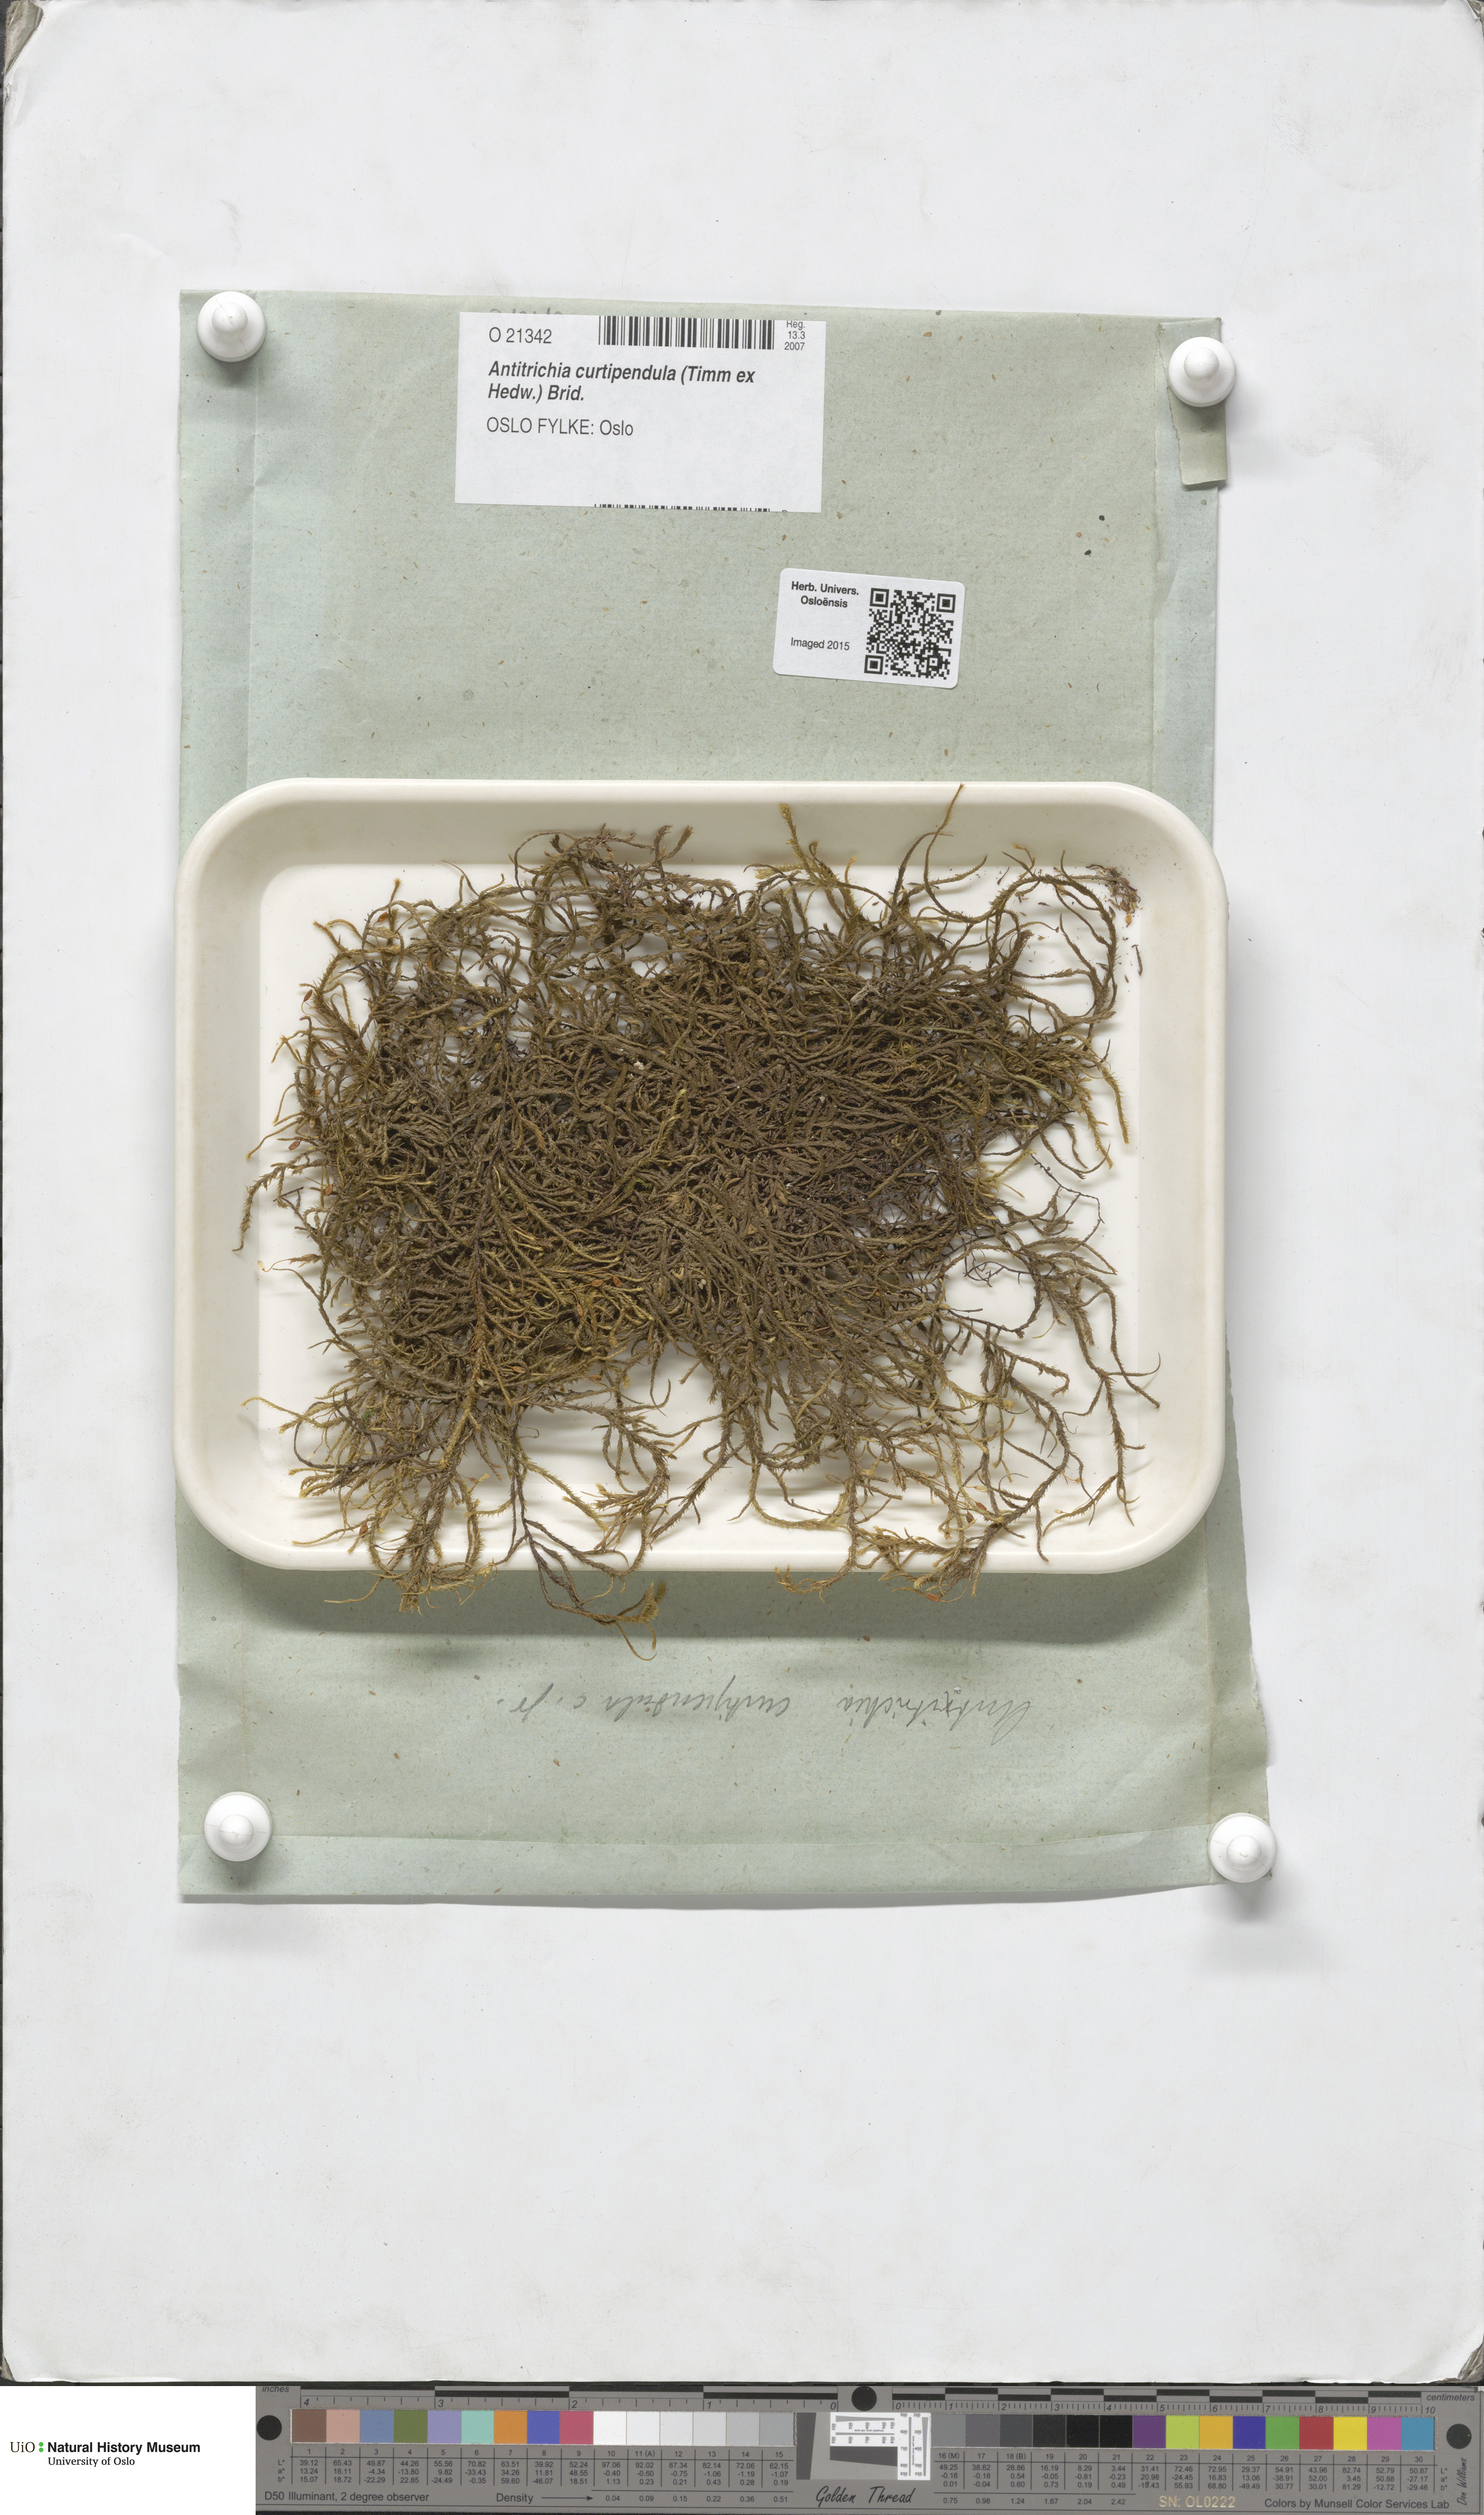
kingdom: Plantae
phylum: Bryophyta
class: Bryopsida
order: Hypnales
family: Antitrichiaceae
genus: Antitrichia
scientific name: Antitrichia curtipendula
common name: Pendulous wing-moss
